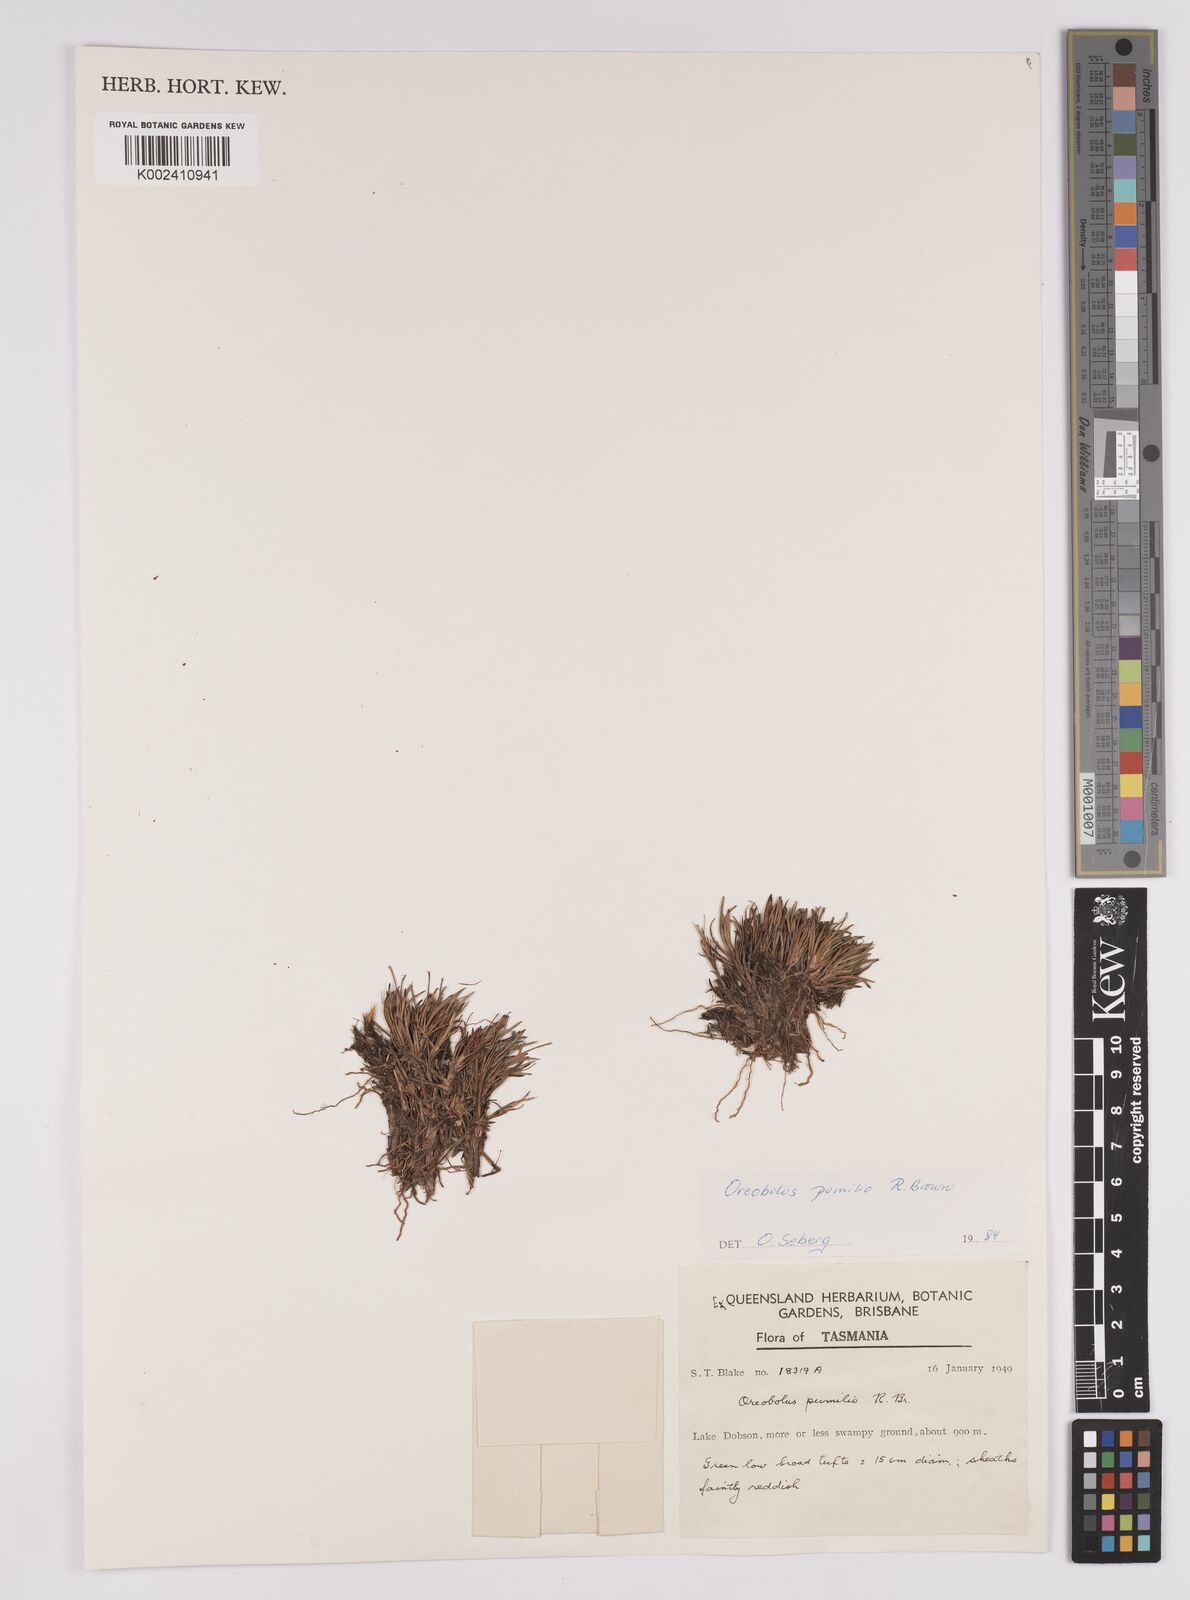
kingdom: Plantae
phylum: Tracheophyta
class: Liliopsida
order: Poales
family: Cyperaceae
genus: Oreobolus
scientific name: Oreobolus pumilio
